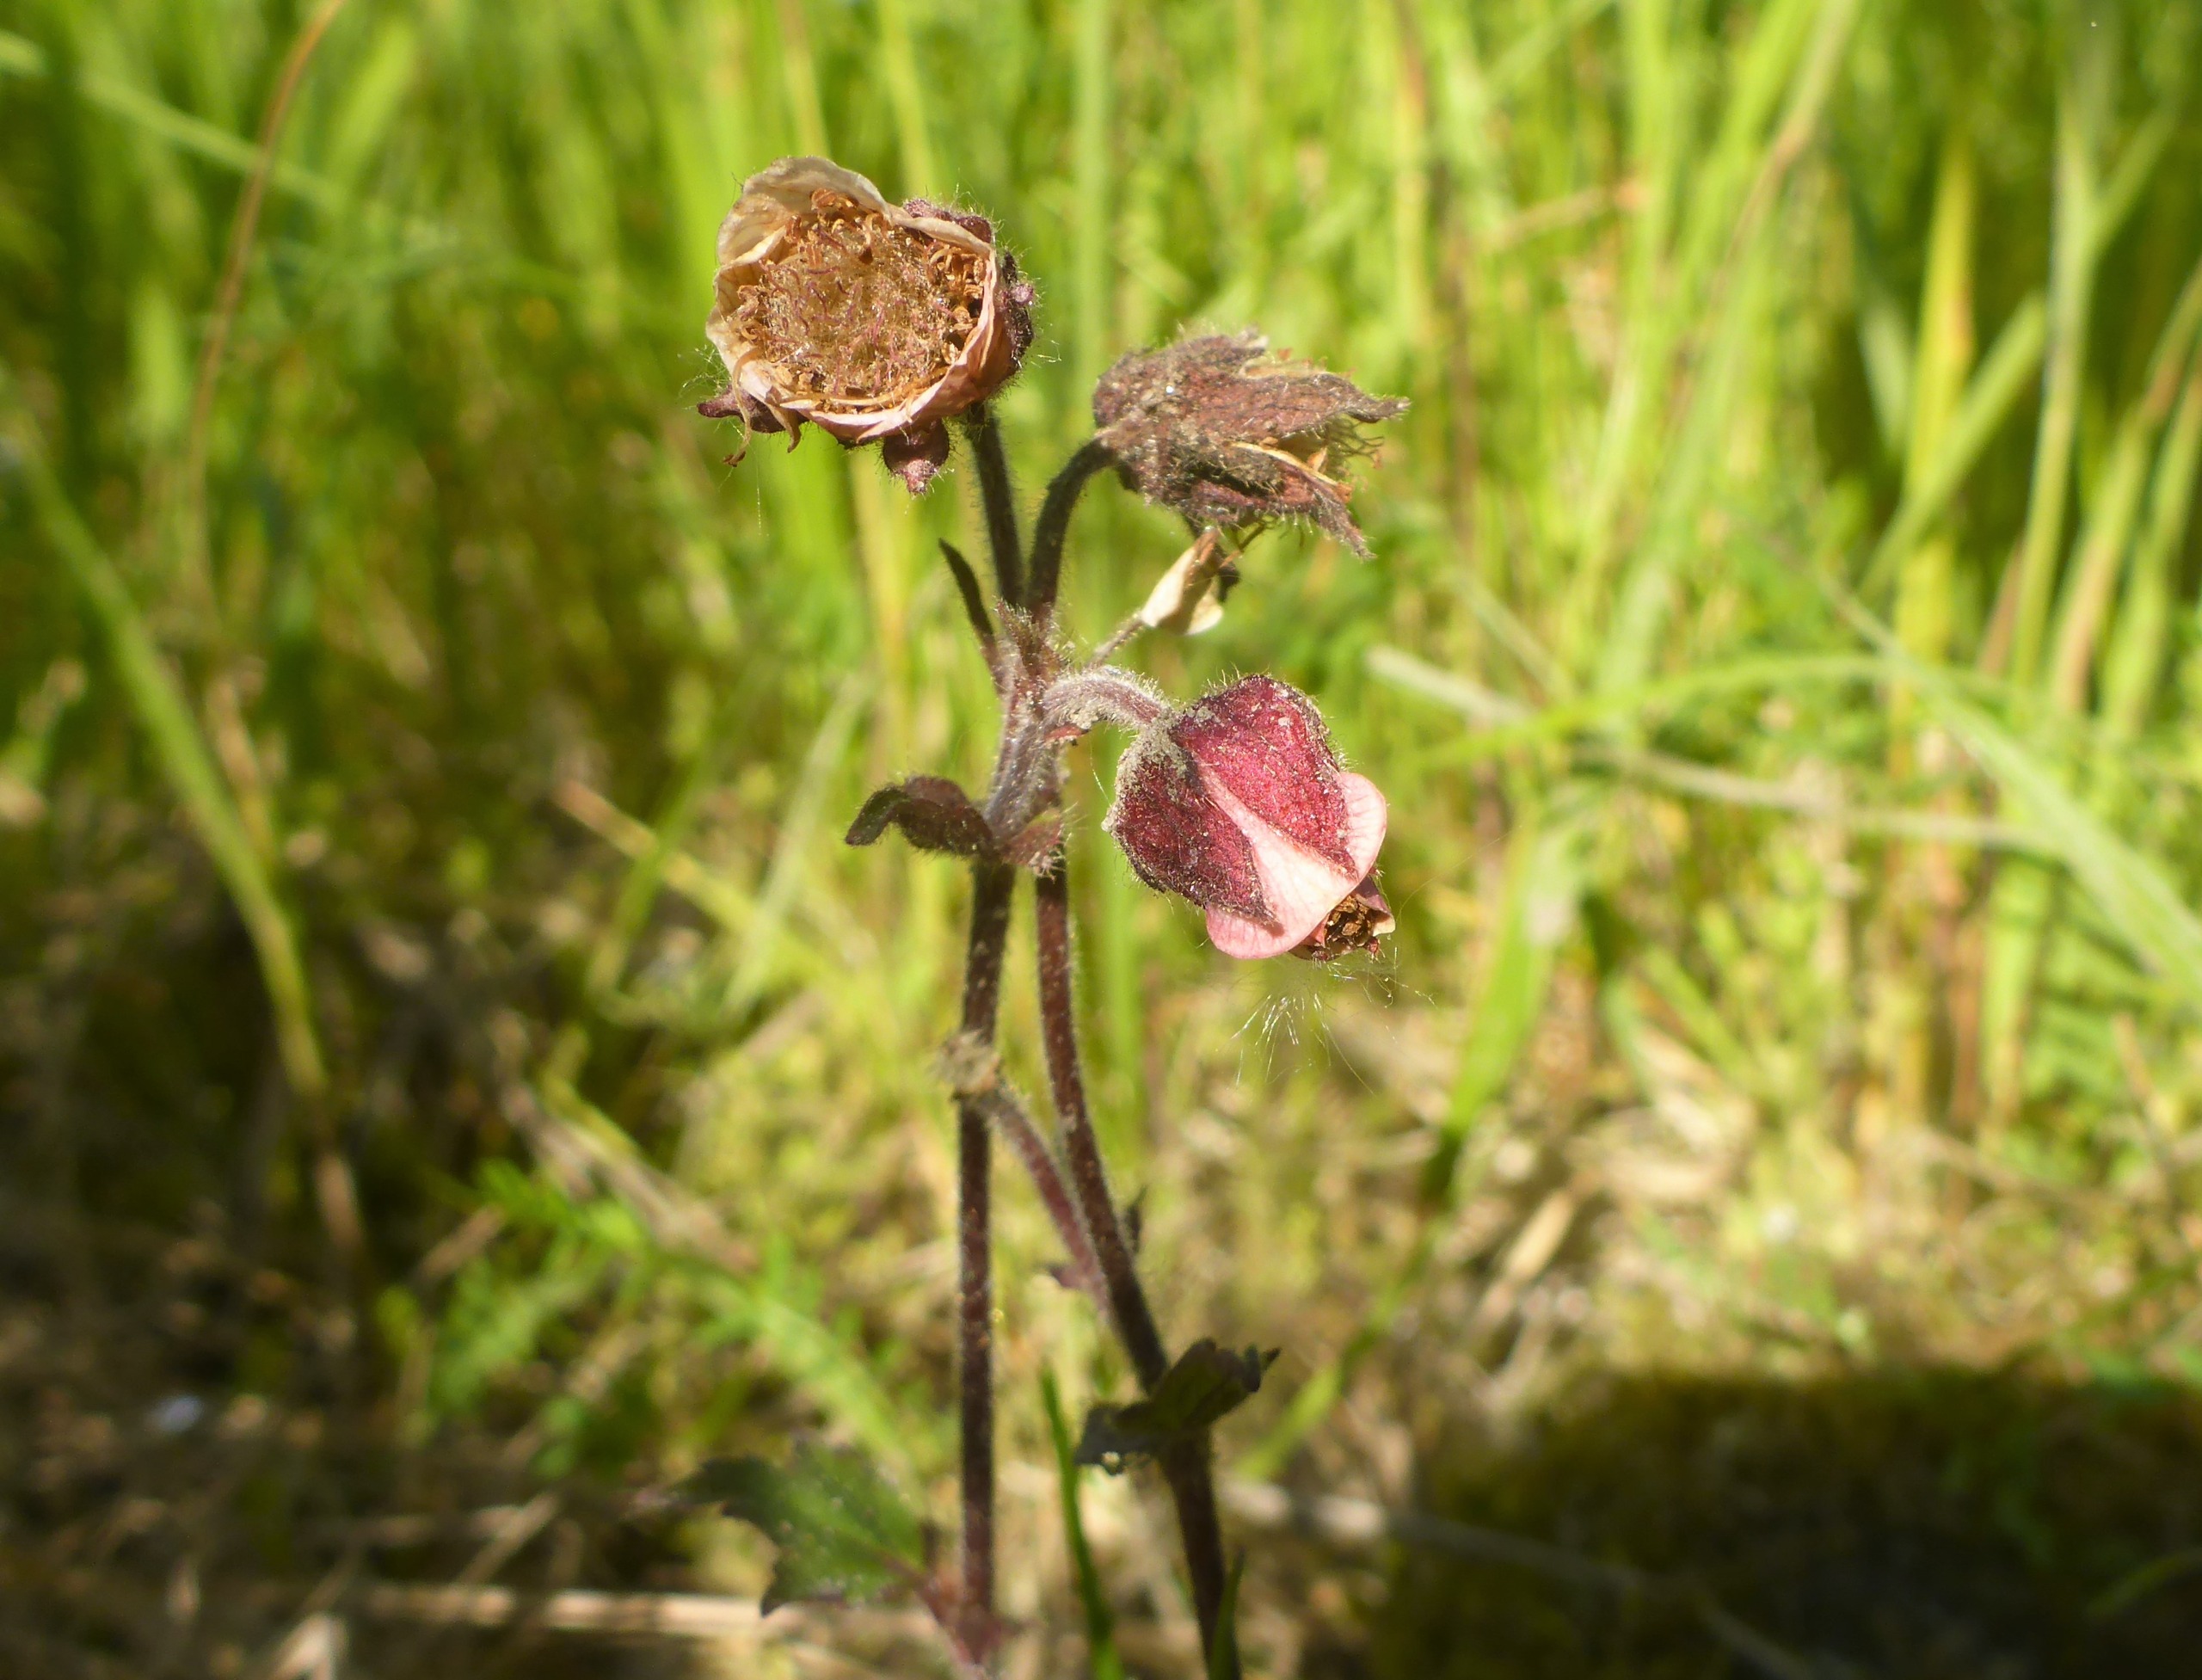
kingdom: Plantae
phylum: Tracheophyta
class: Magnoliopsida
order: Rosales
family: Rosaceae
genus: Geum
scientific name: Geum rivale
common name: Eng-nellikerod
